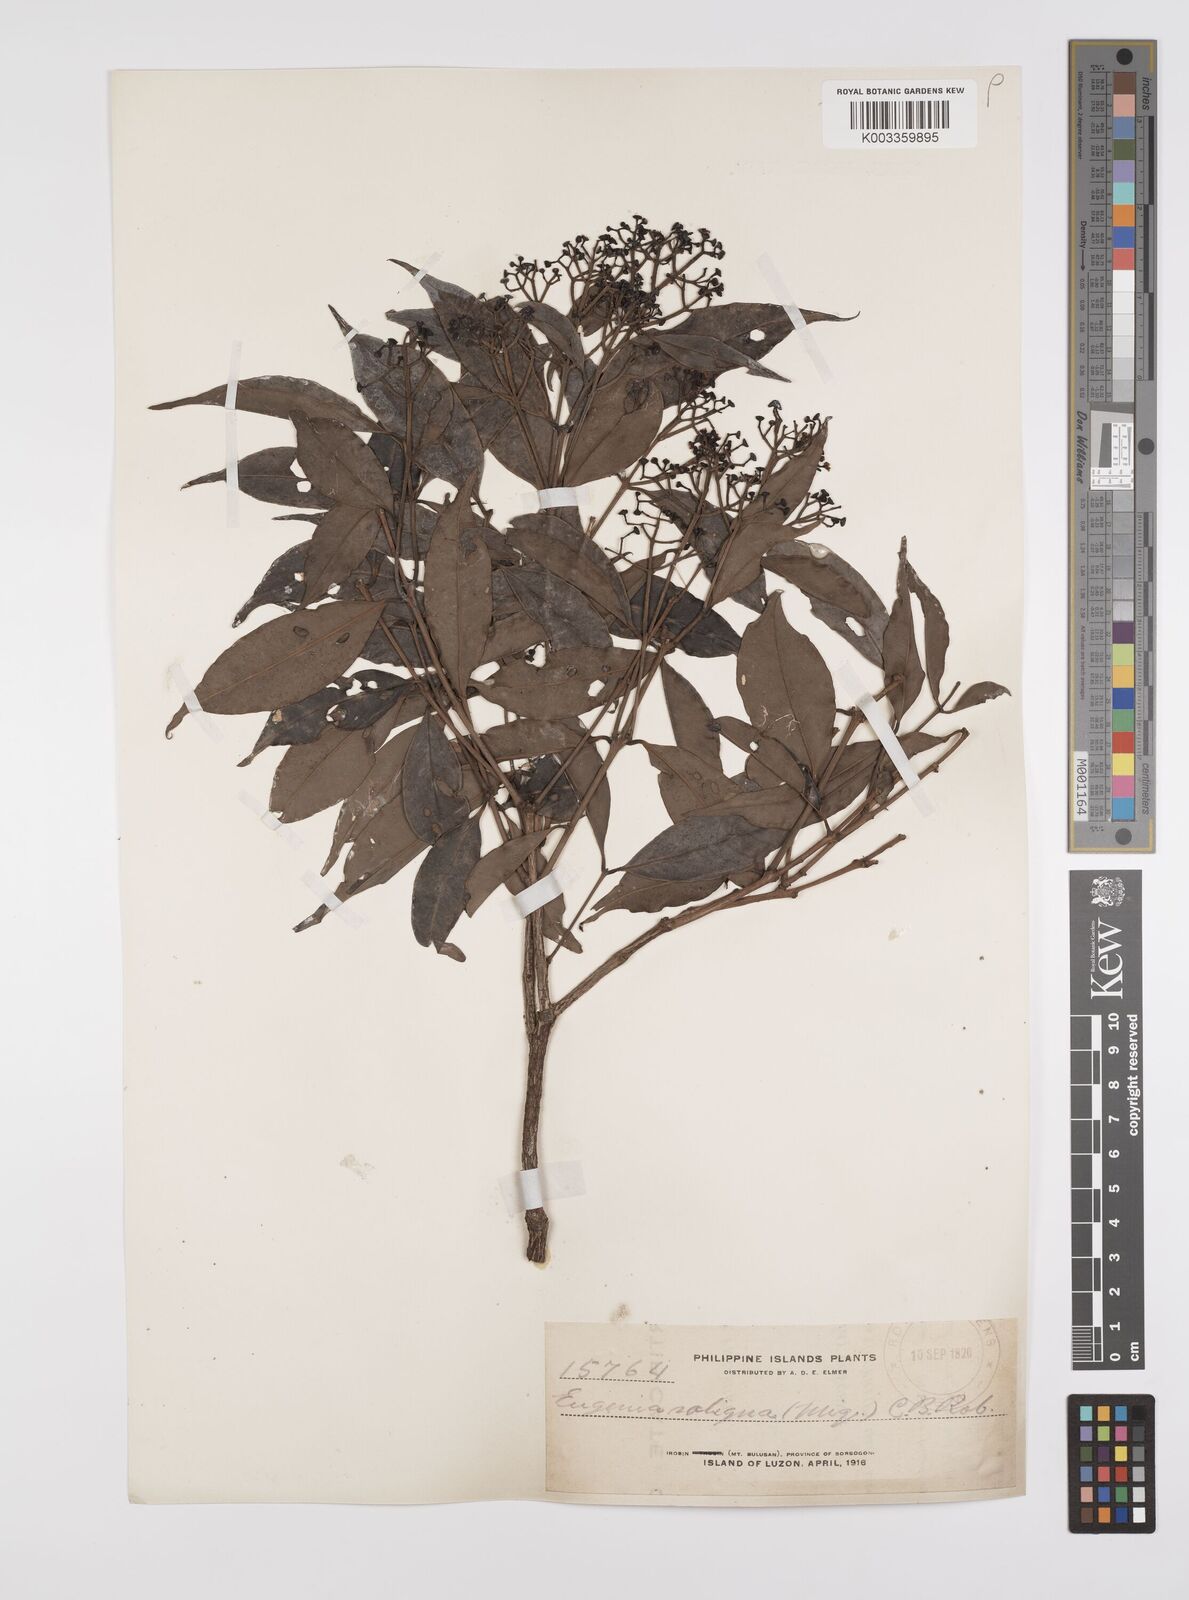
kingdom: Plantae
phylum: Tracheophyta
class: Magnoliopsida
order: Myrtales
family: Myrtaceae
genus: Syzygium
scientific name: Syzygium acuminatissimum
